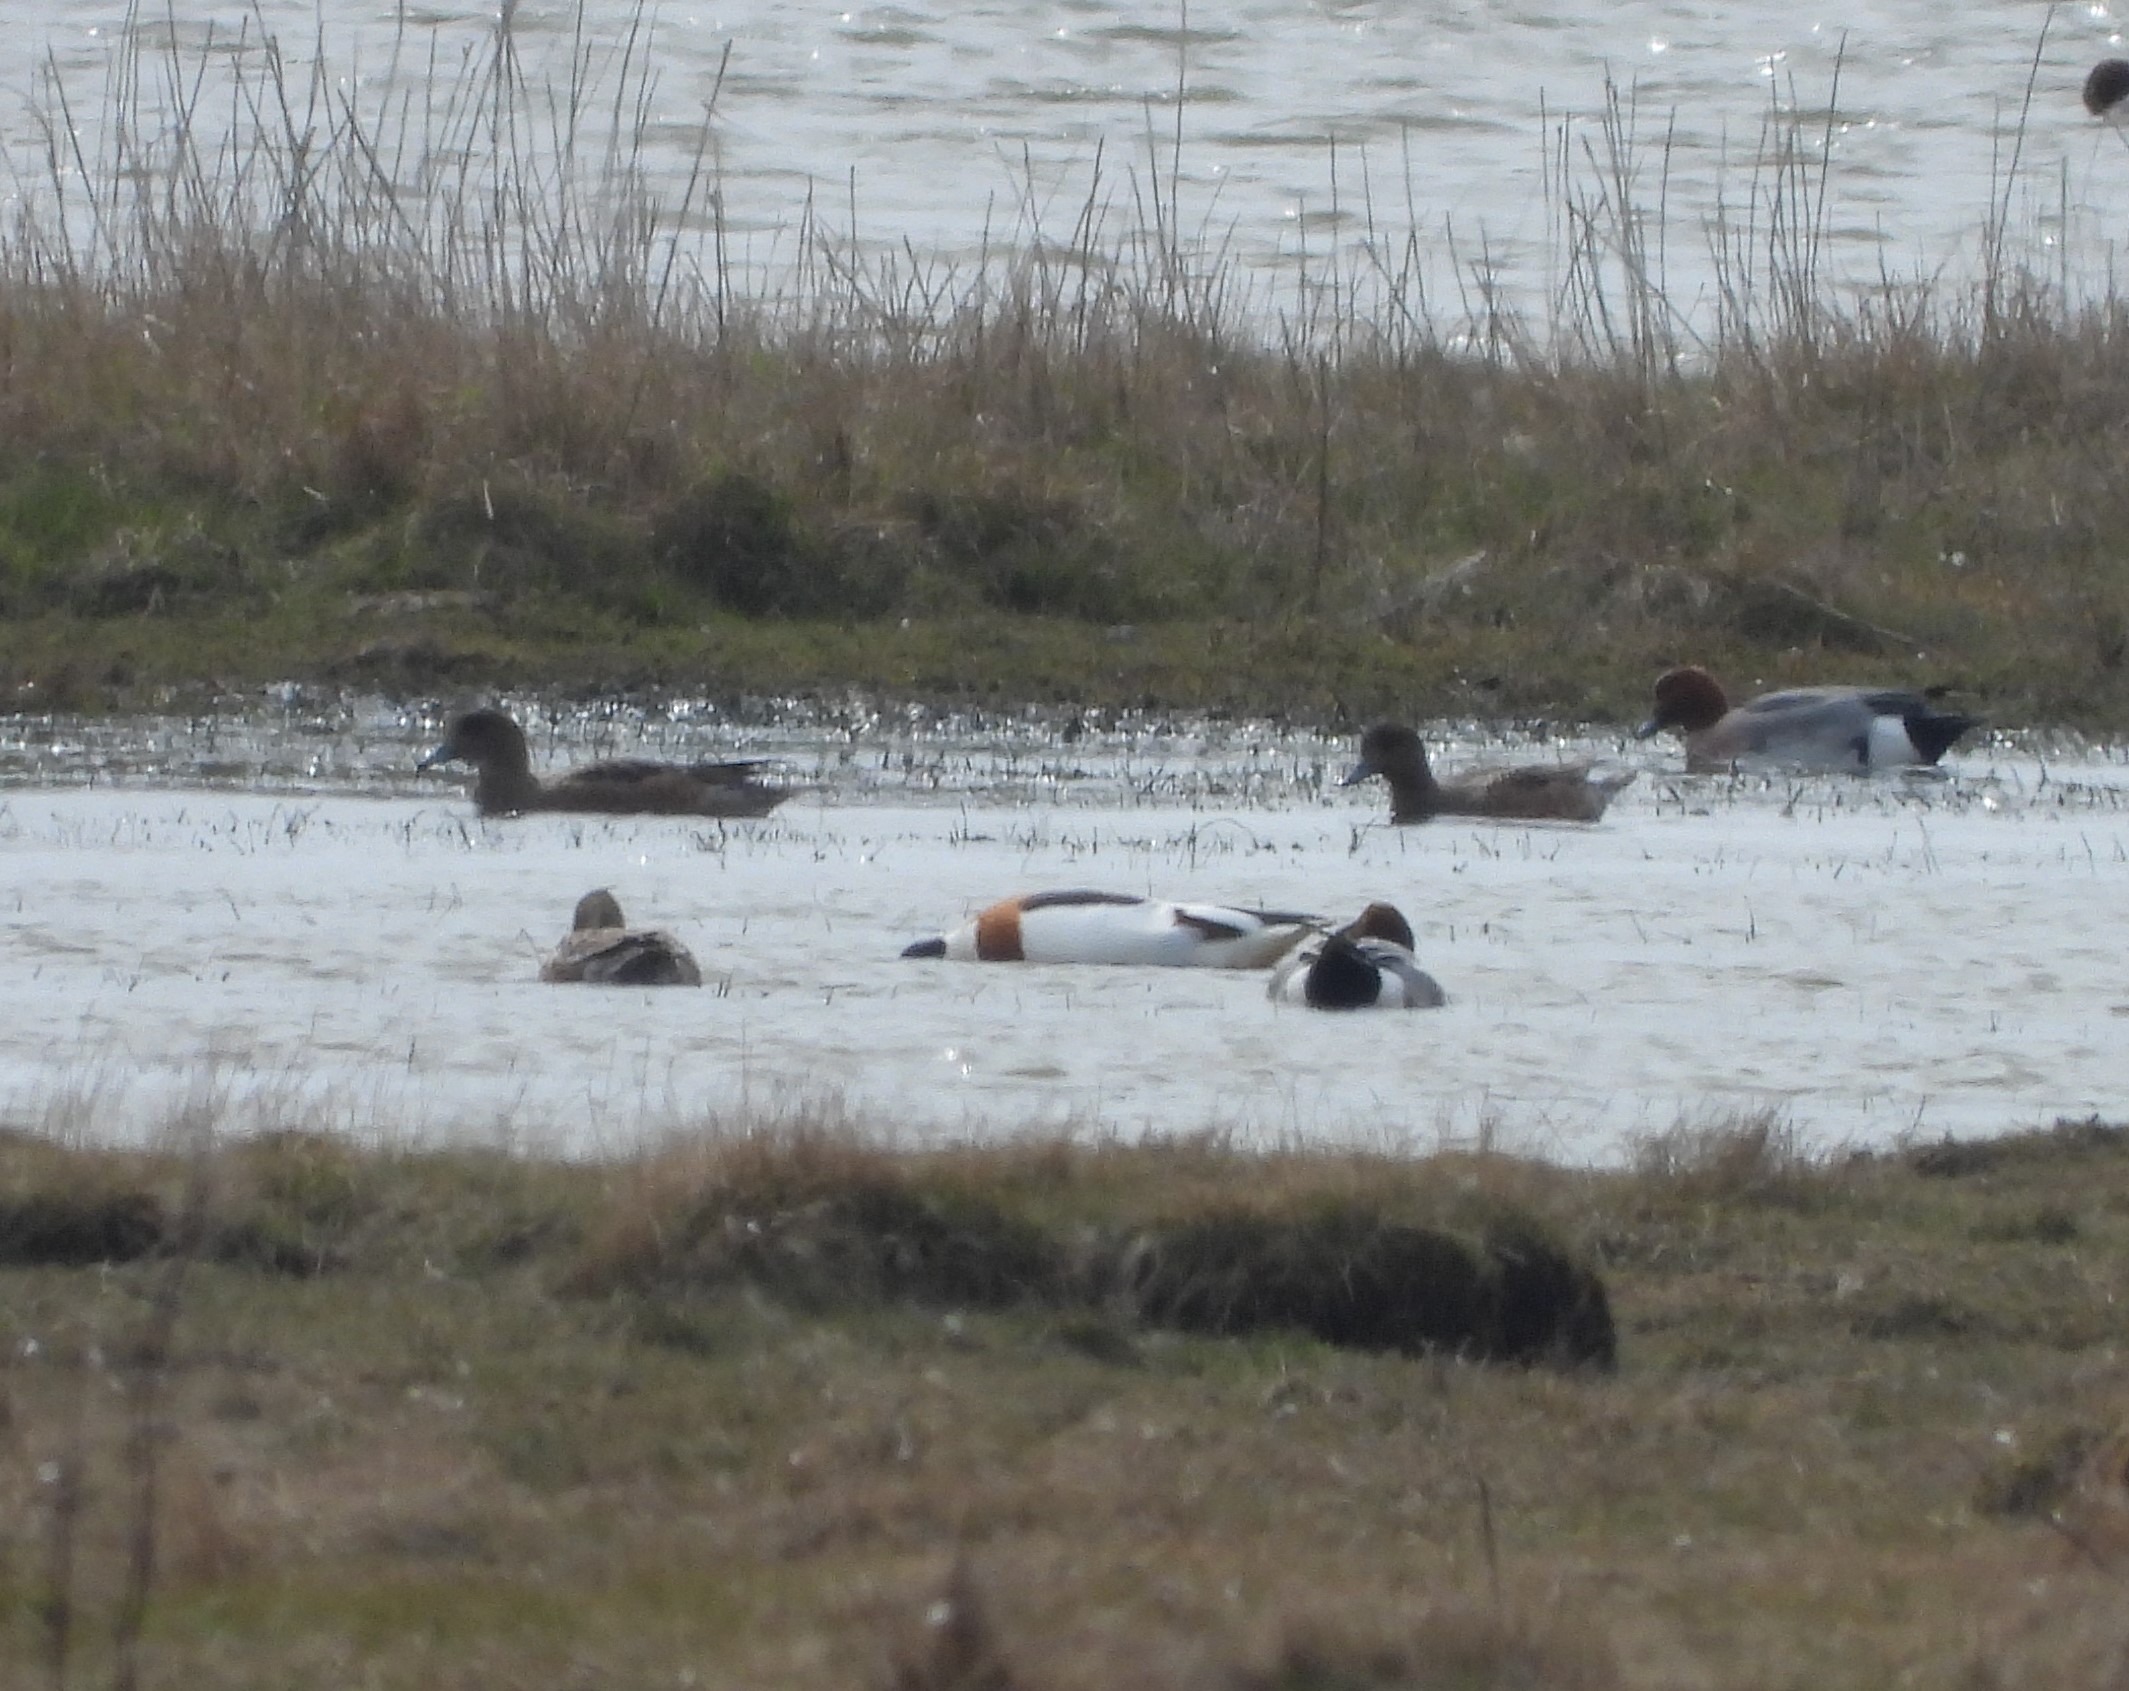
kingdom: Animalia
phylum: Chordata
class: Aves
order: Anseriformes
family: Anatidae
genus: Tadorna
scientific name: Tadorna tadorna
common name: Gravand
